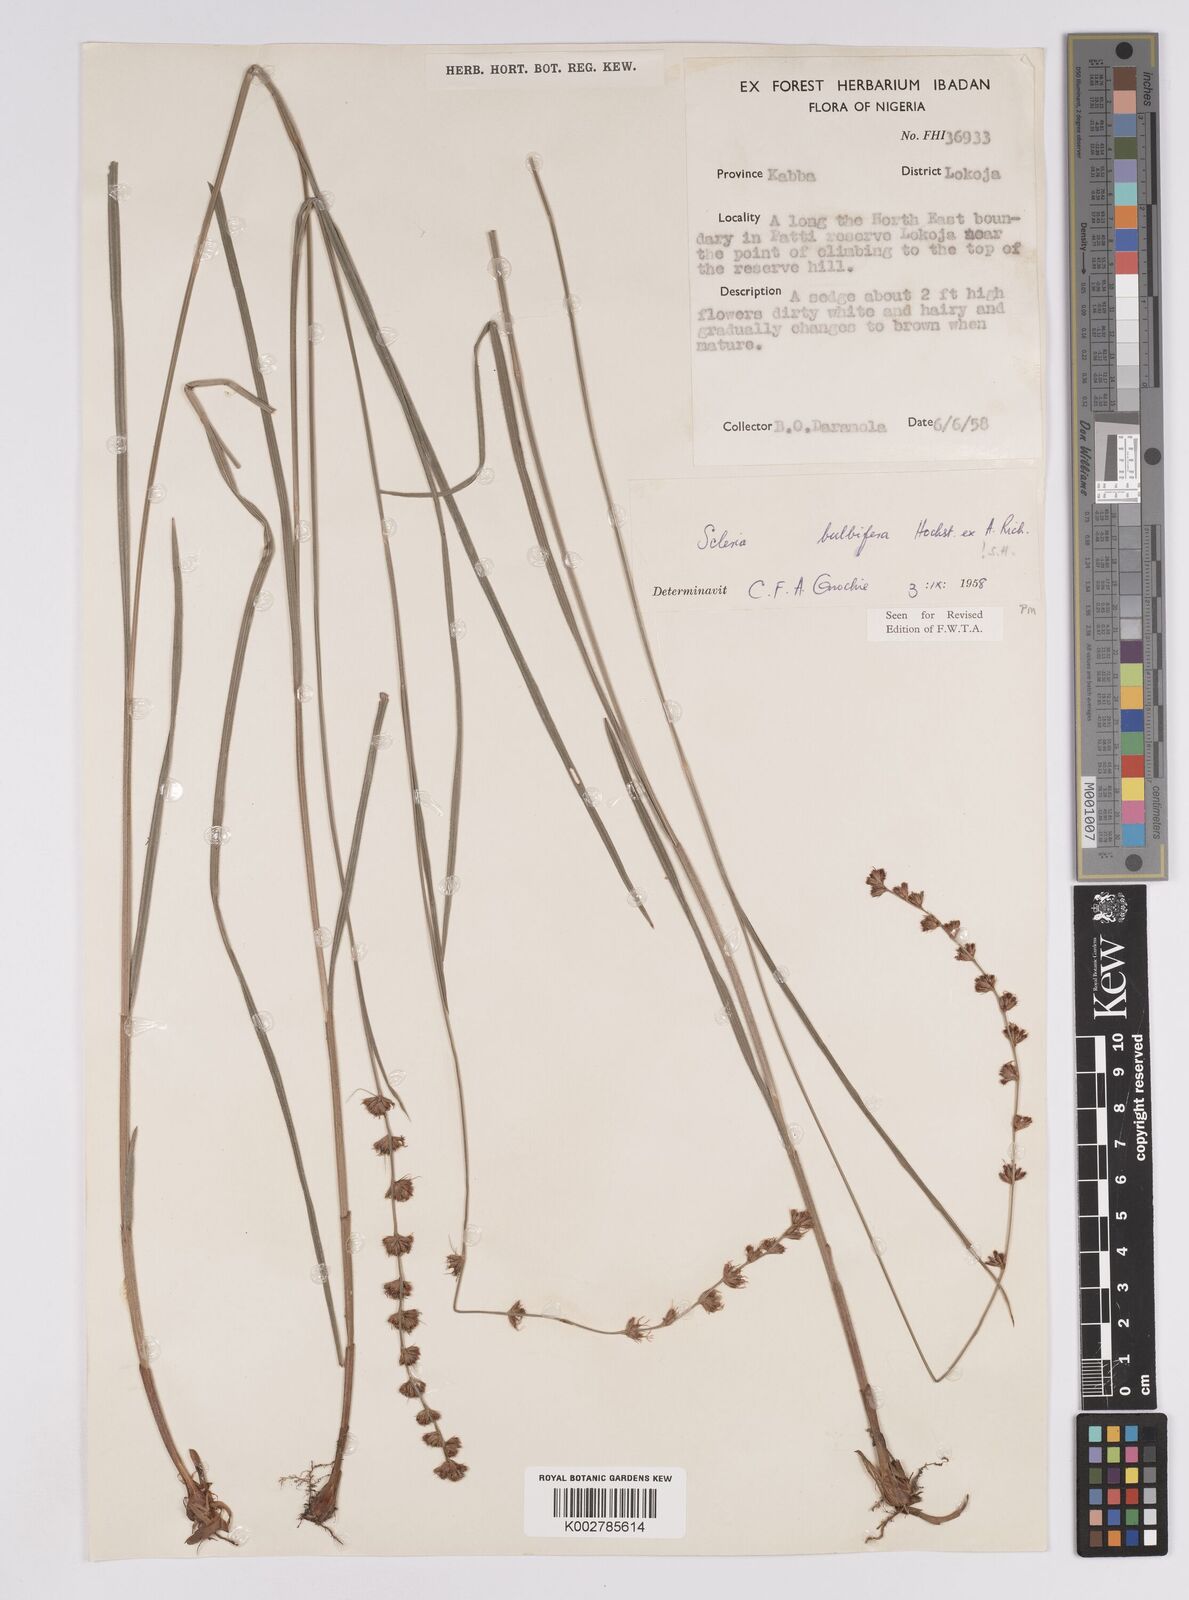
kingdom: Plantae
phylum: Tracheophyta
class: Liliopsida
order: Poales
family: Cyperaceae
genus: Scleria
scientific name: Scleria bulbifera
